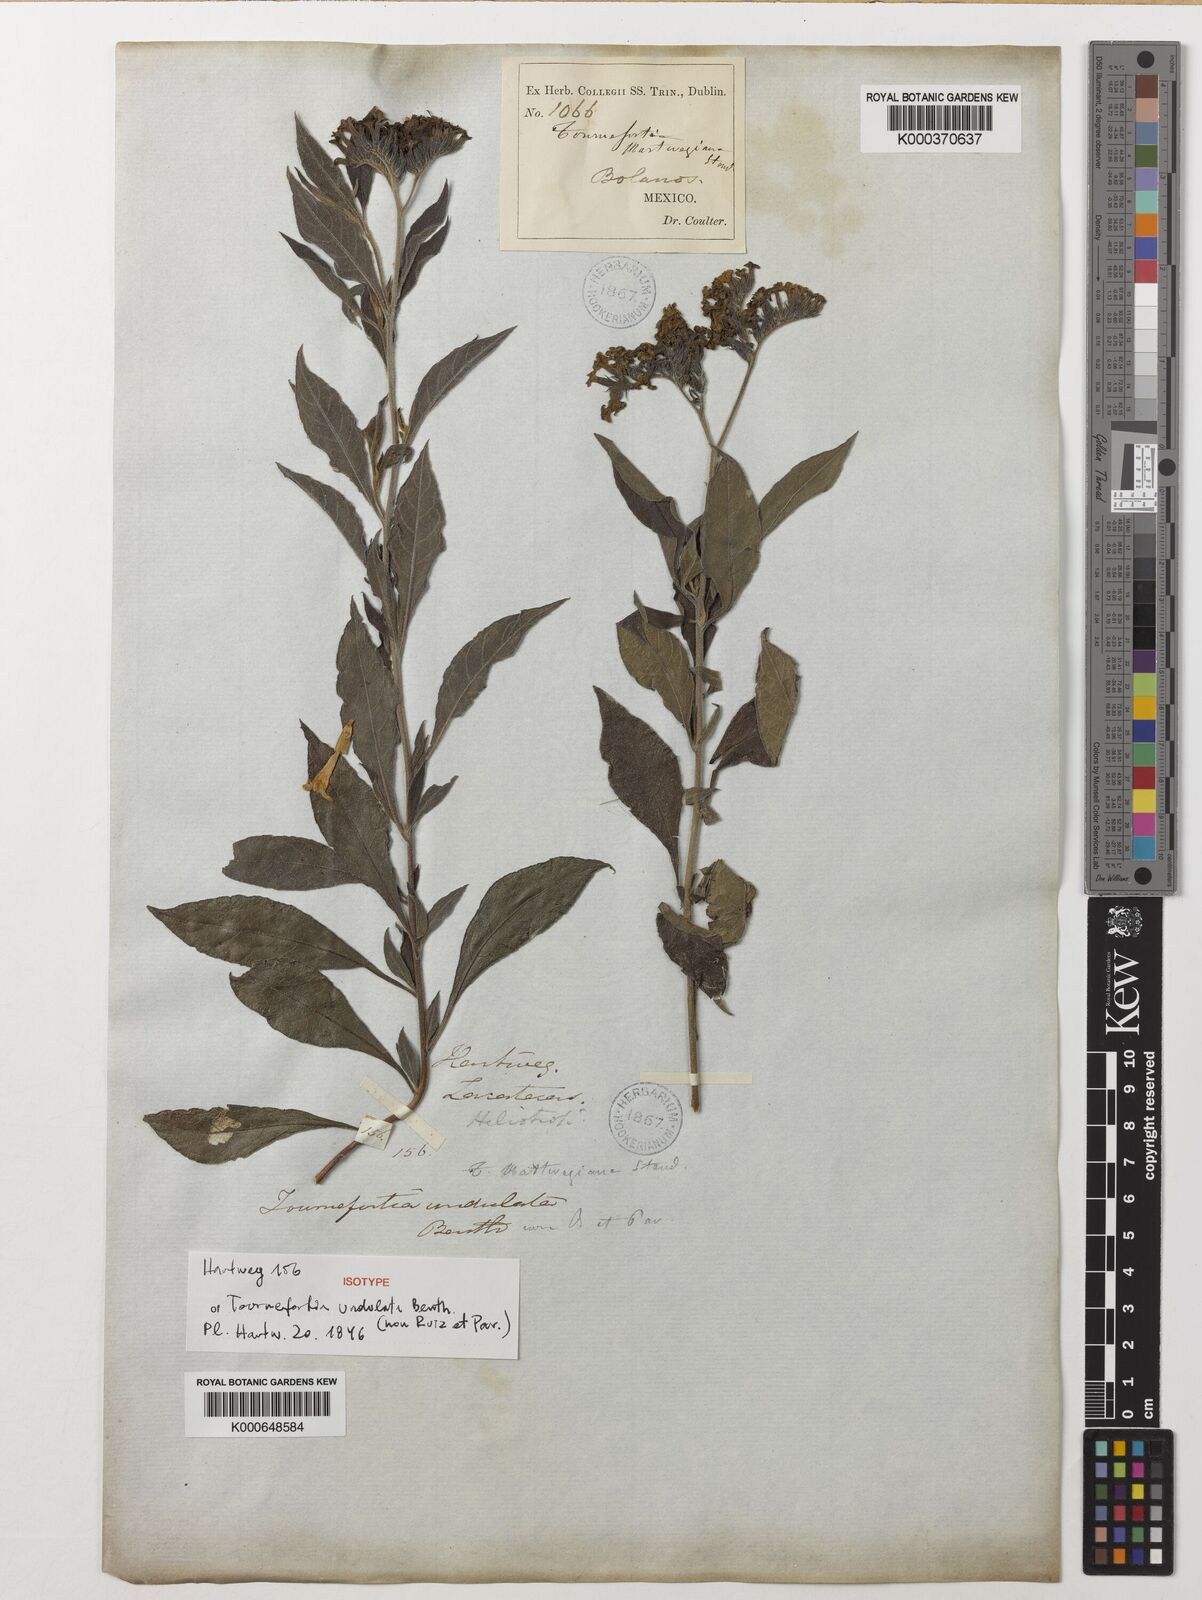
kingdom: Plantae
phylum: Tracheophyta
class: Magnoliopsida
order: Boraginales
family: Heliotropiaceae
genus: Tournefortia
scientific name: Tournefortia mutabilis
